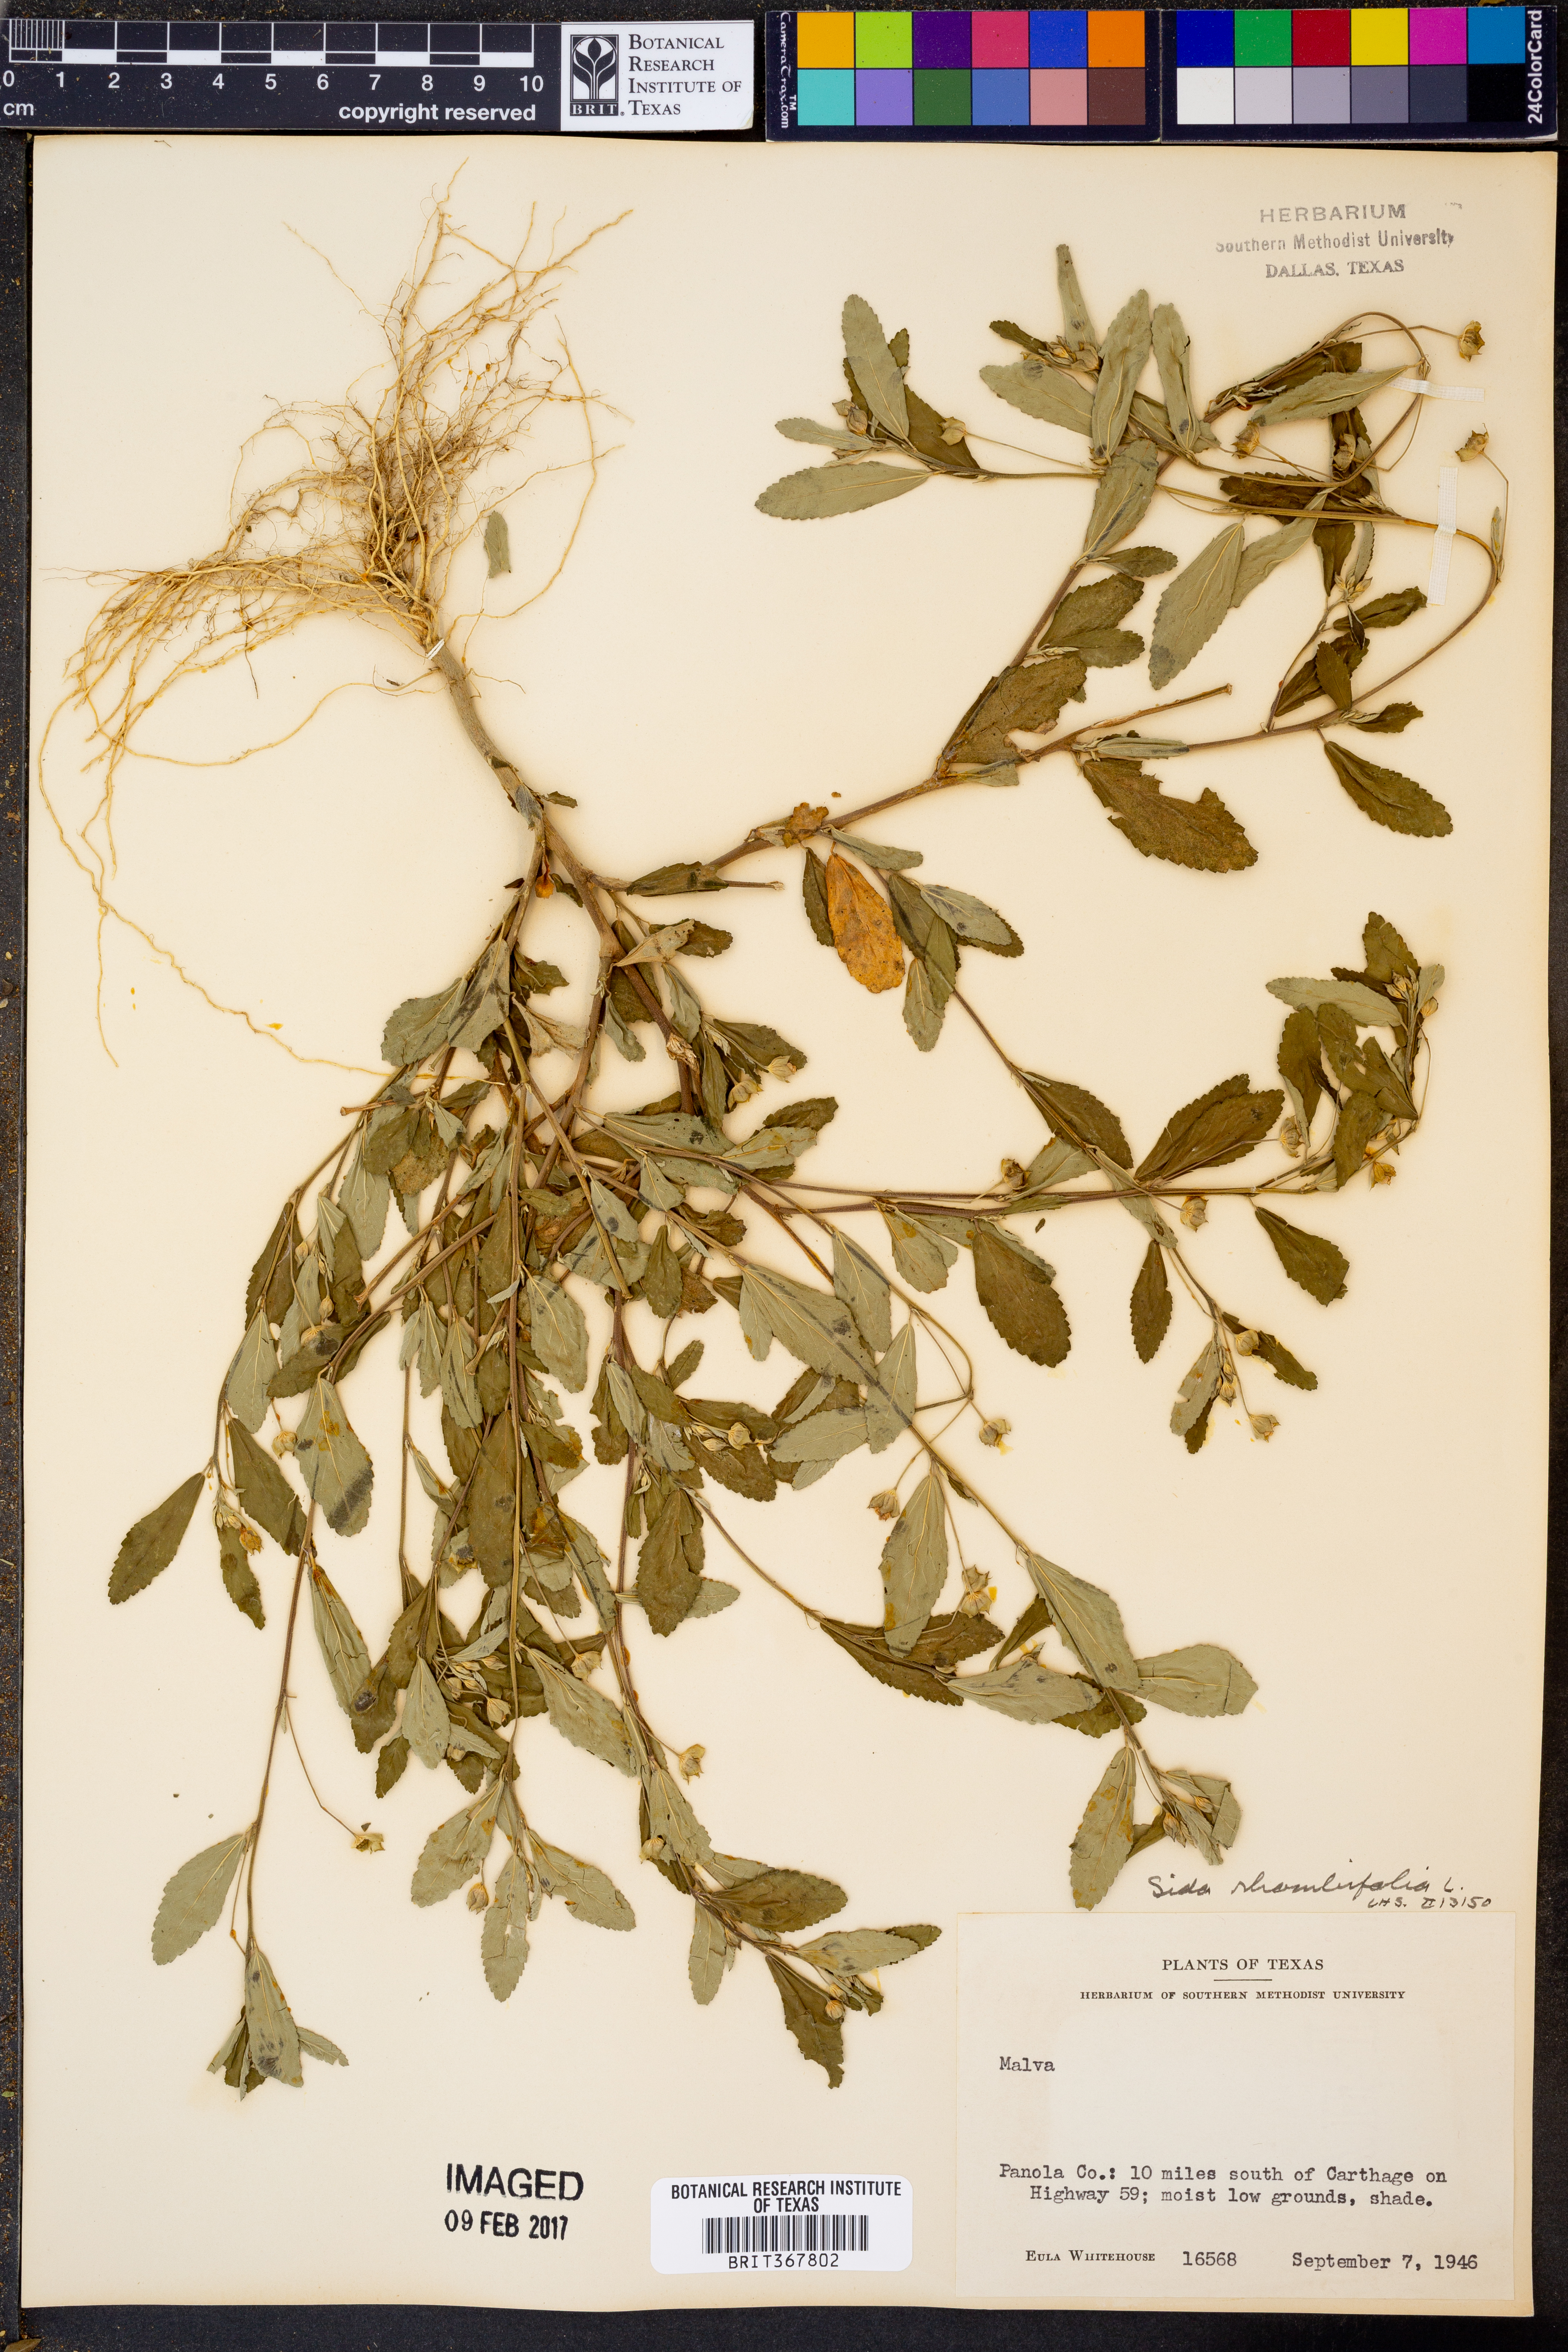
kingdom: Plantae
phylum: Tracheophyta
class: Magnoliopsida
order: Malvales
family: Malvaceae
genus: Sida
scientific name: Sida rhombifolia
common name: Queensland-hemp
